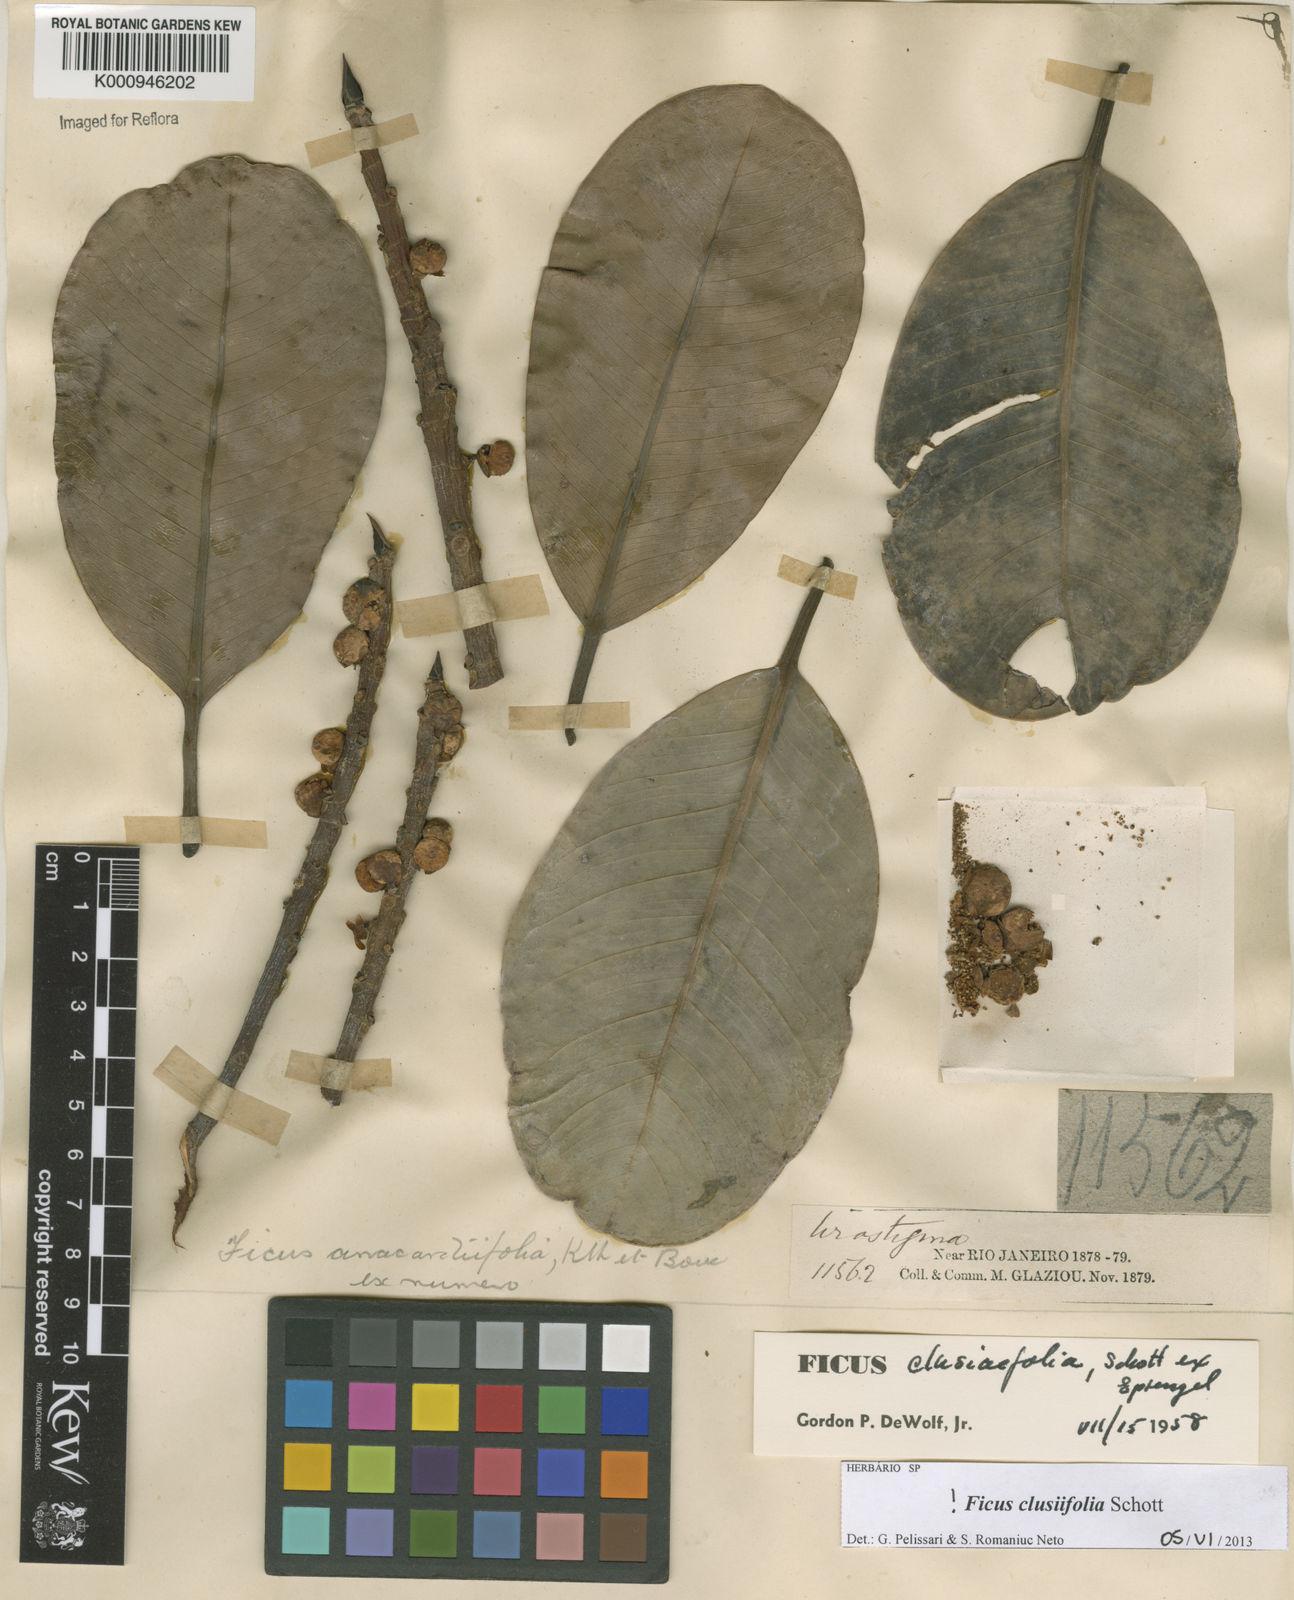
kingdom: Plantae
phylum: Tracheophyta
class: Magnoliopsida
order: Rosales
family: Moraceae
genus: Ficus
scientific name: Ficus
